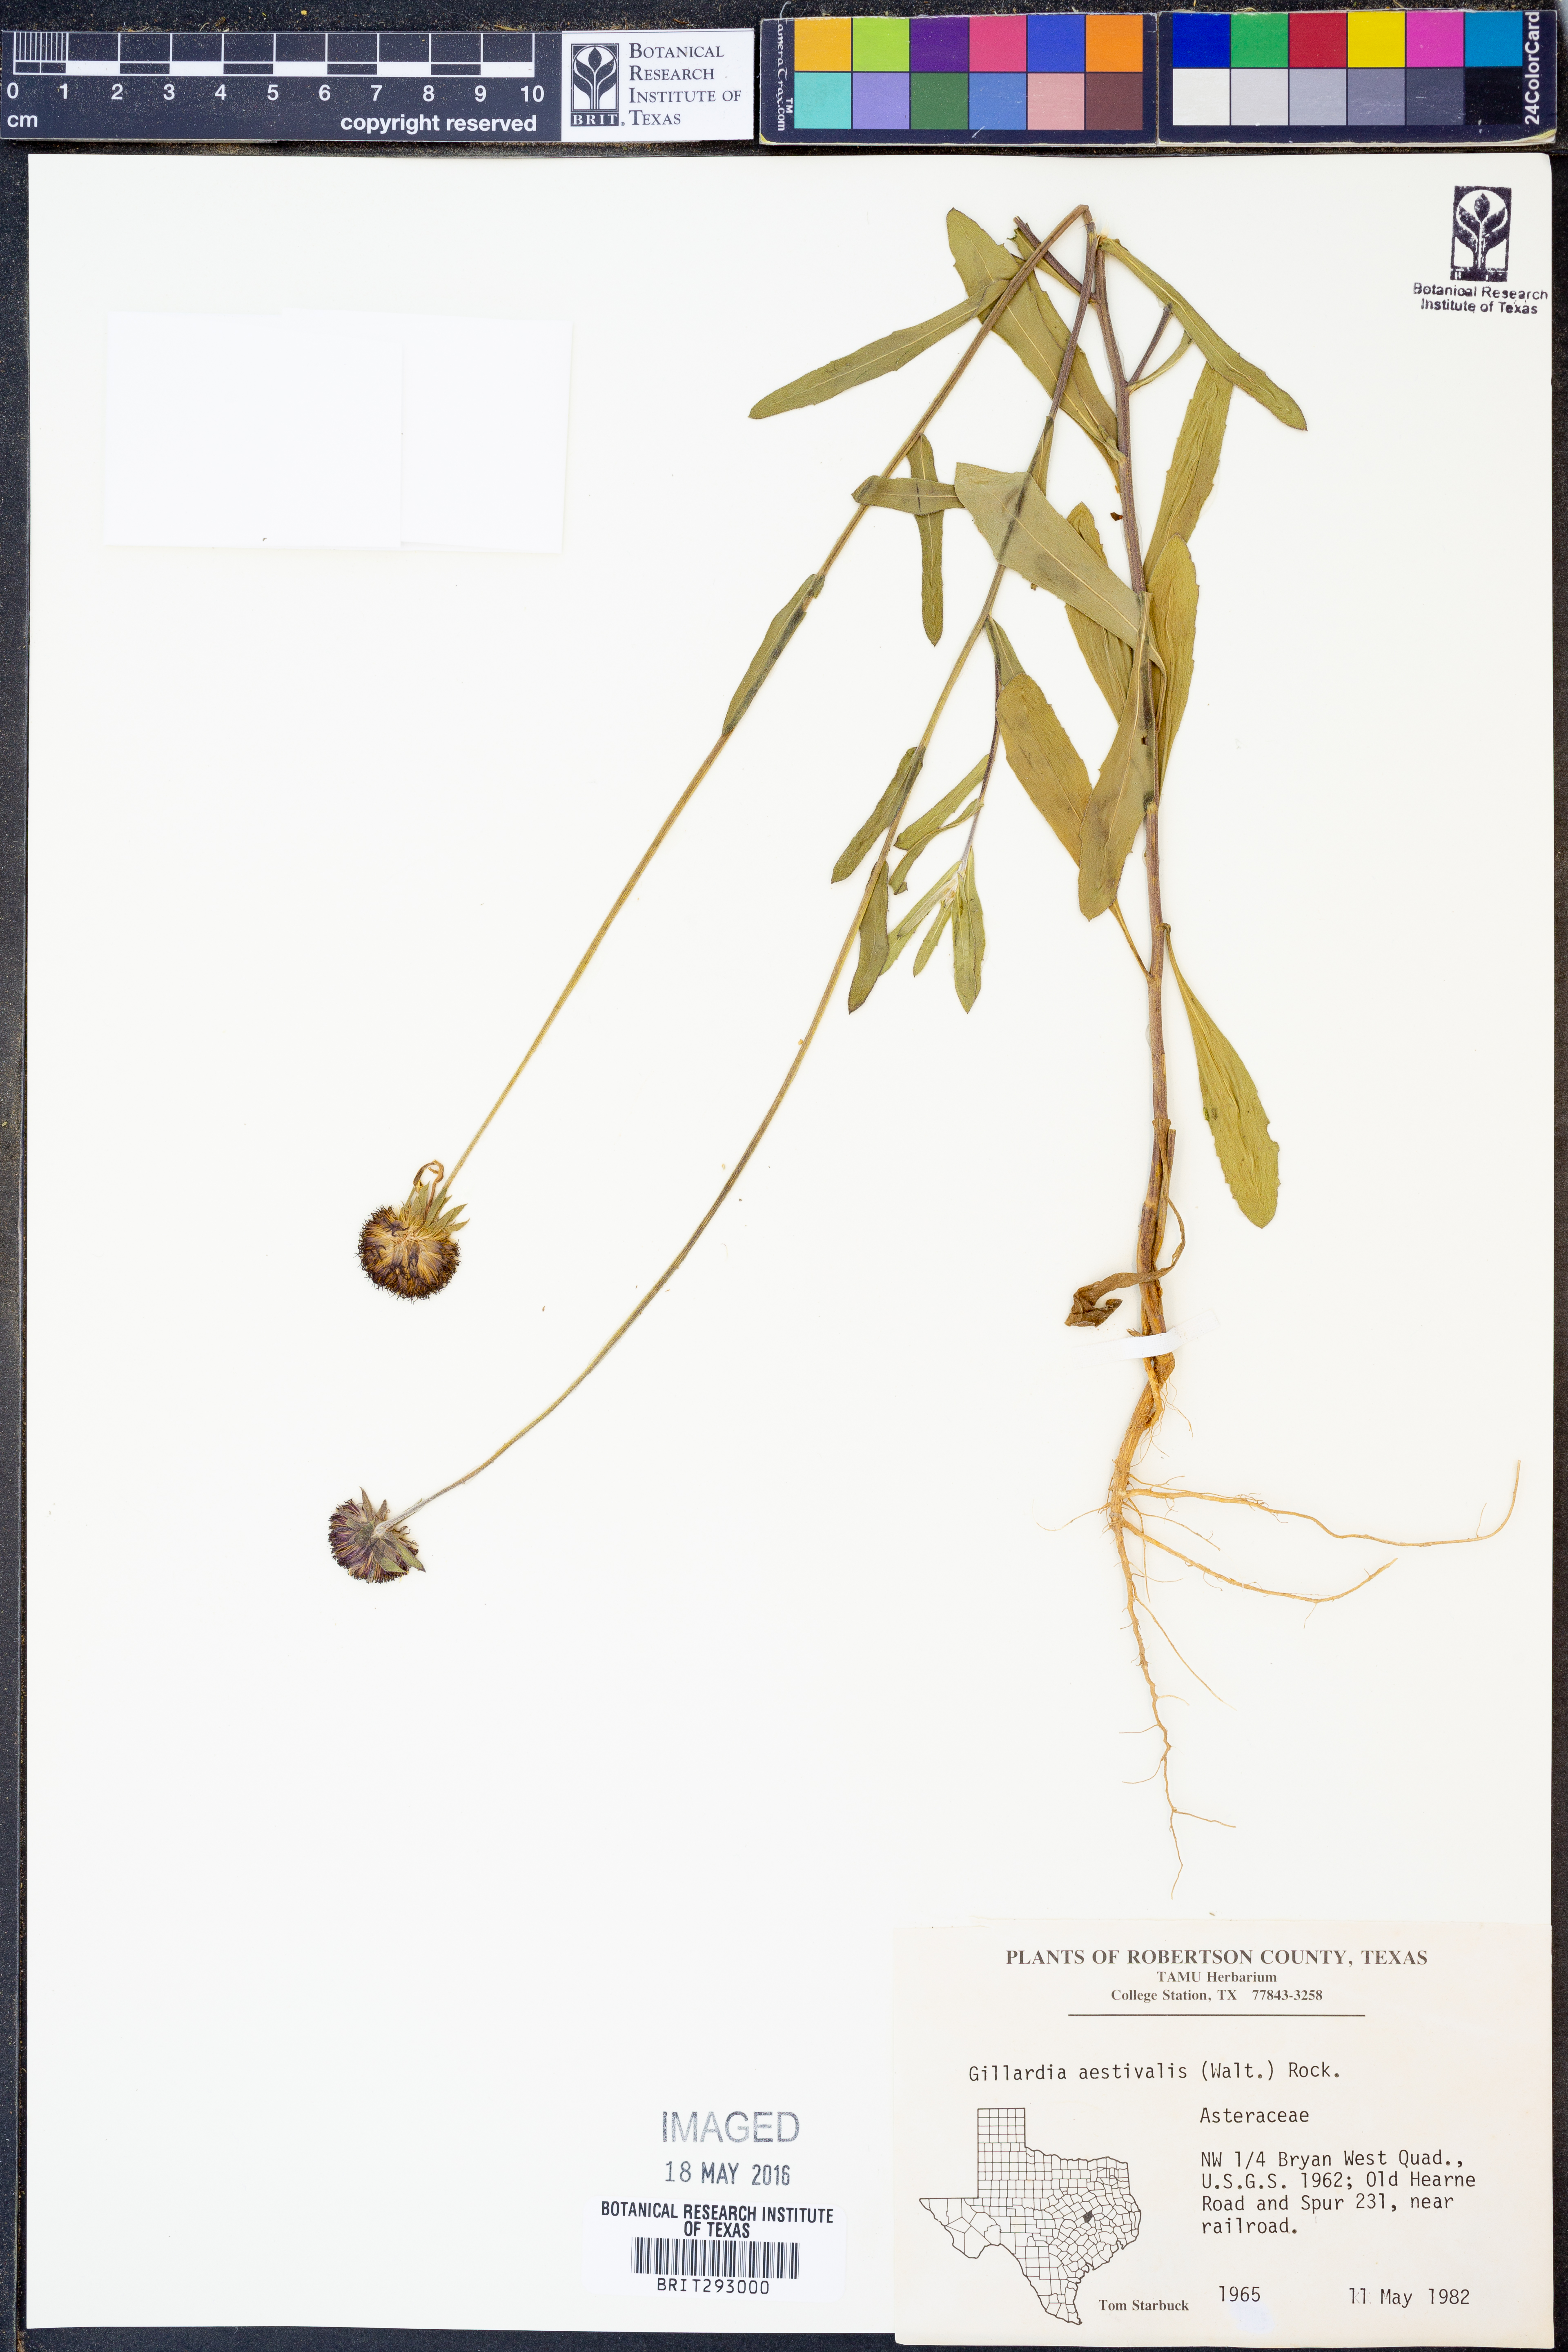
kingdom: Plantae
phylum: Tracheophyta
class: Magnoliopsida
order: Asterales
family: Asteraceae
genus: Gaillardia
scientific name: Gaillardia aestivalis
